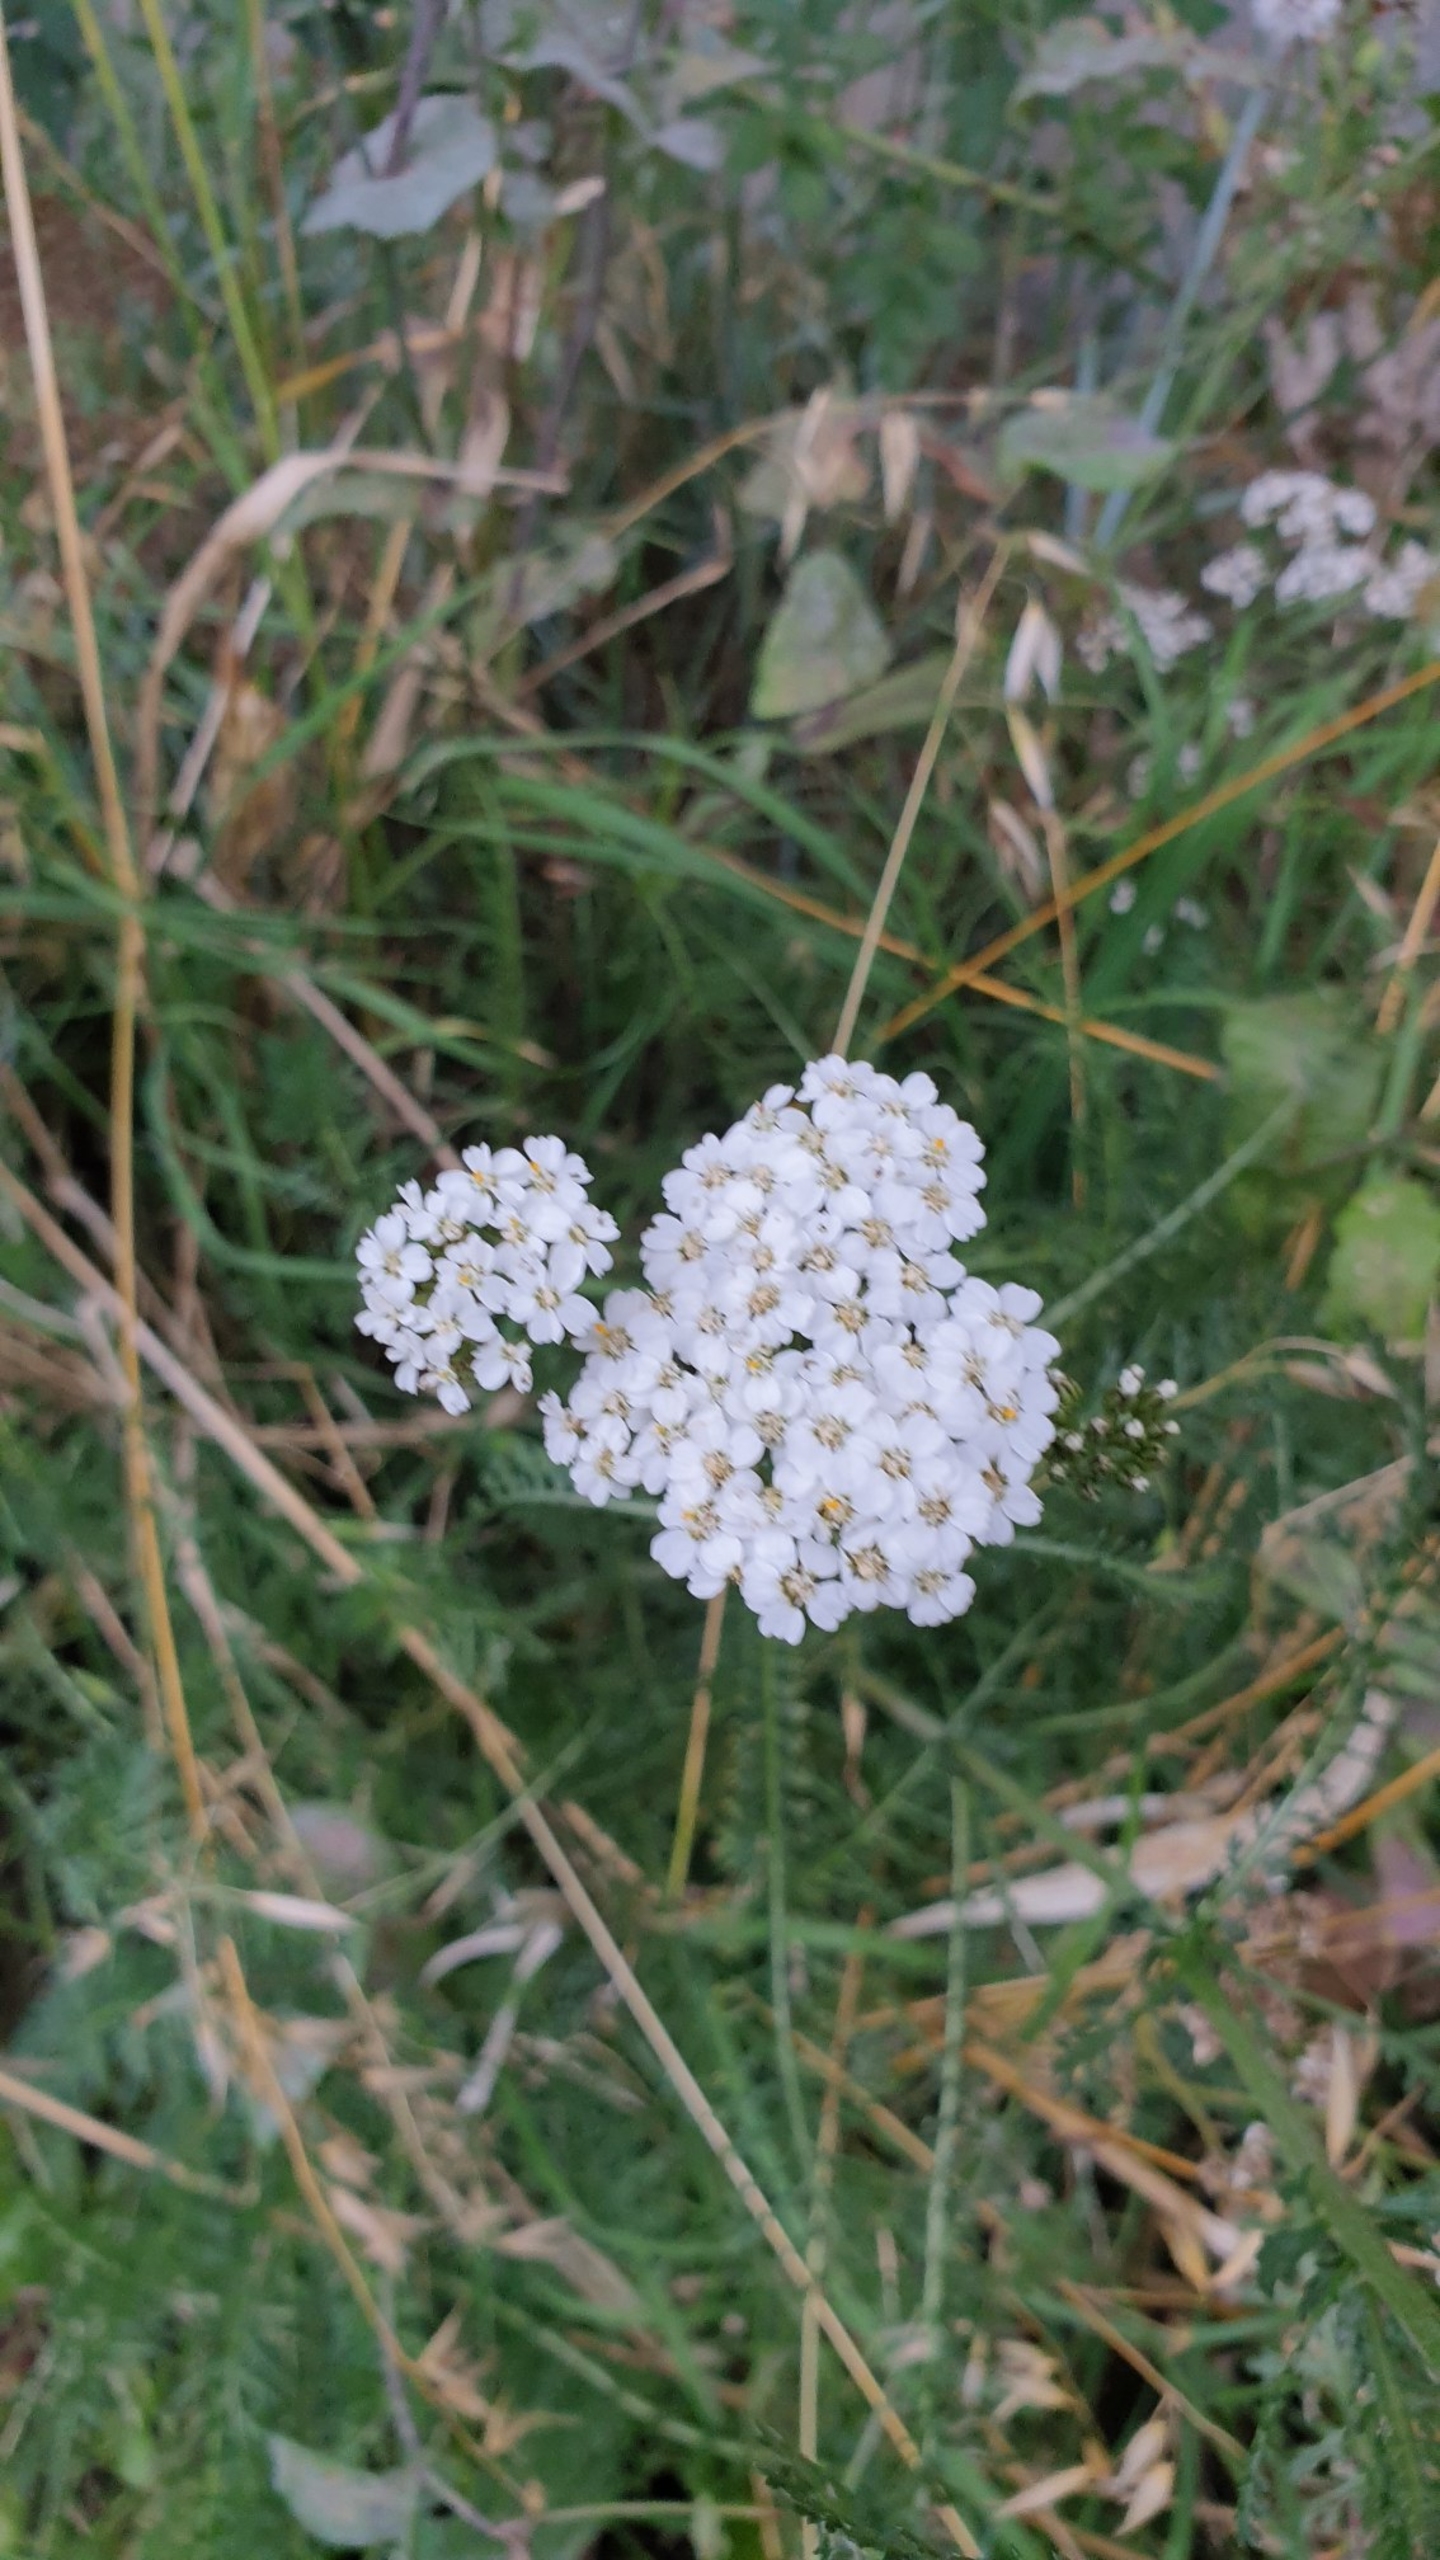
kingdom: Plantae
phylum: Tracheophyta
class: Magnoliopsida
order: Asterales
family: Asteraceae
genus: Achillea
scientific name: Achillea millefolium
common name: Almindelig røllike
